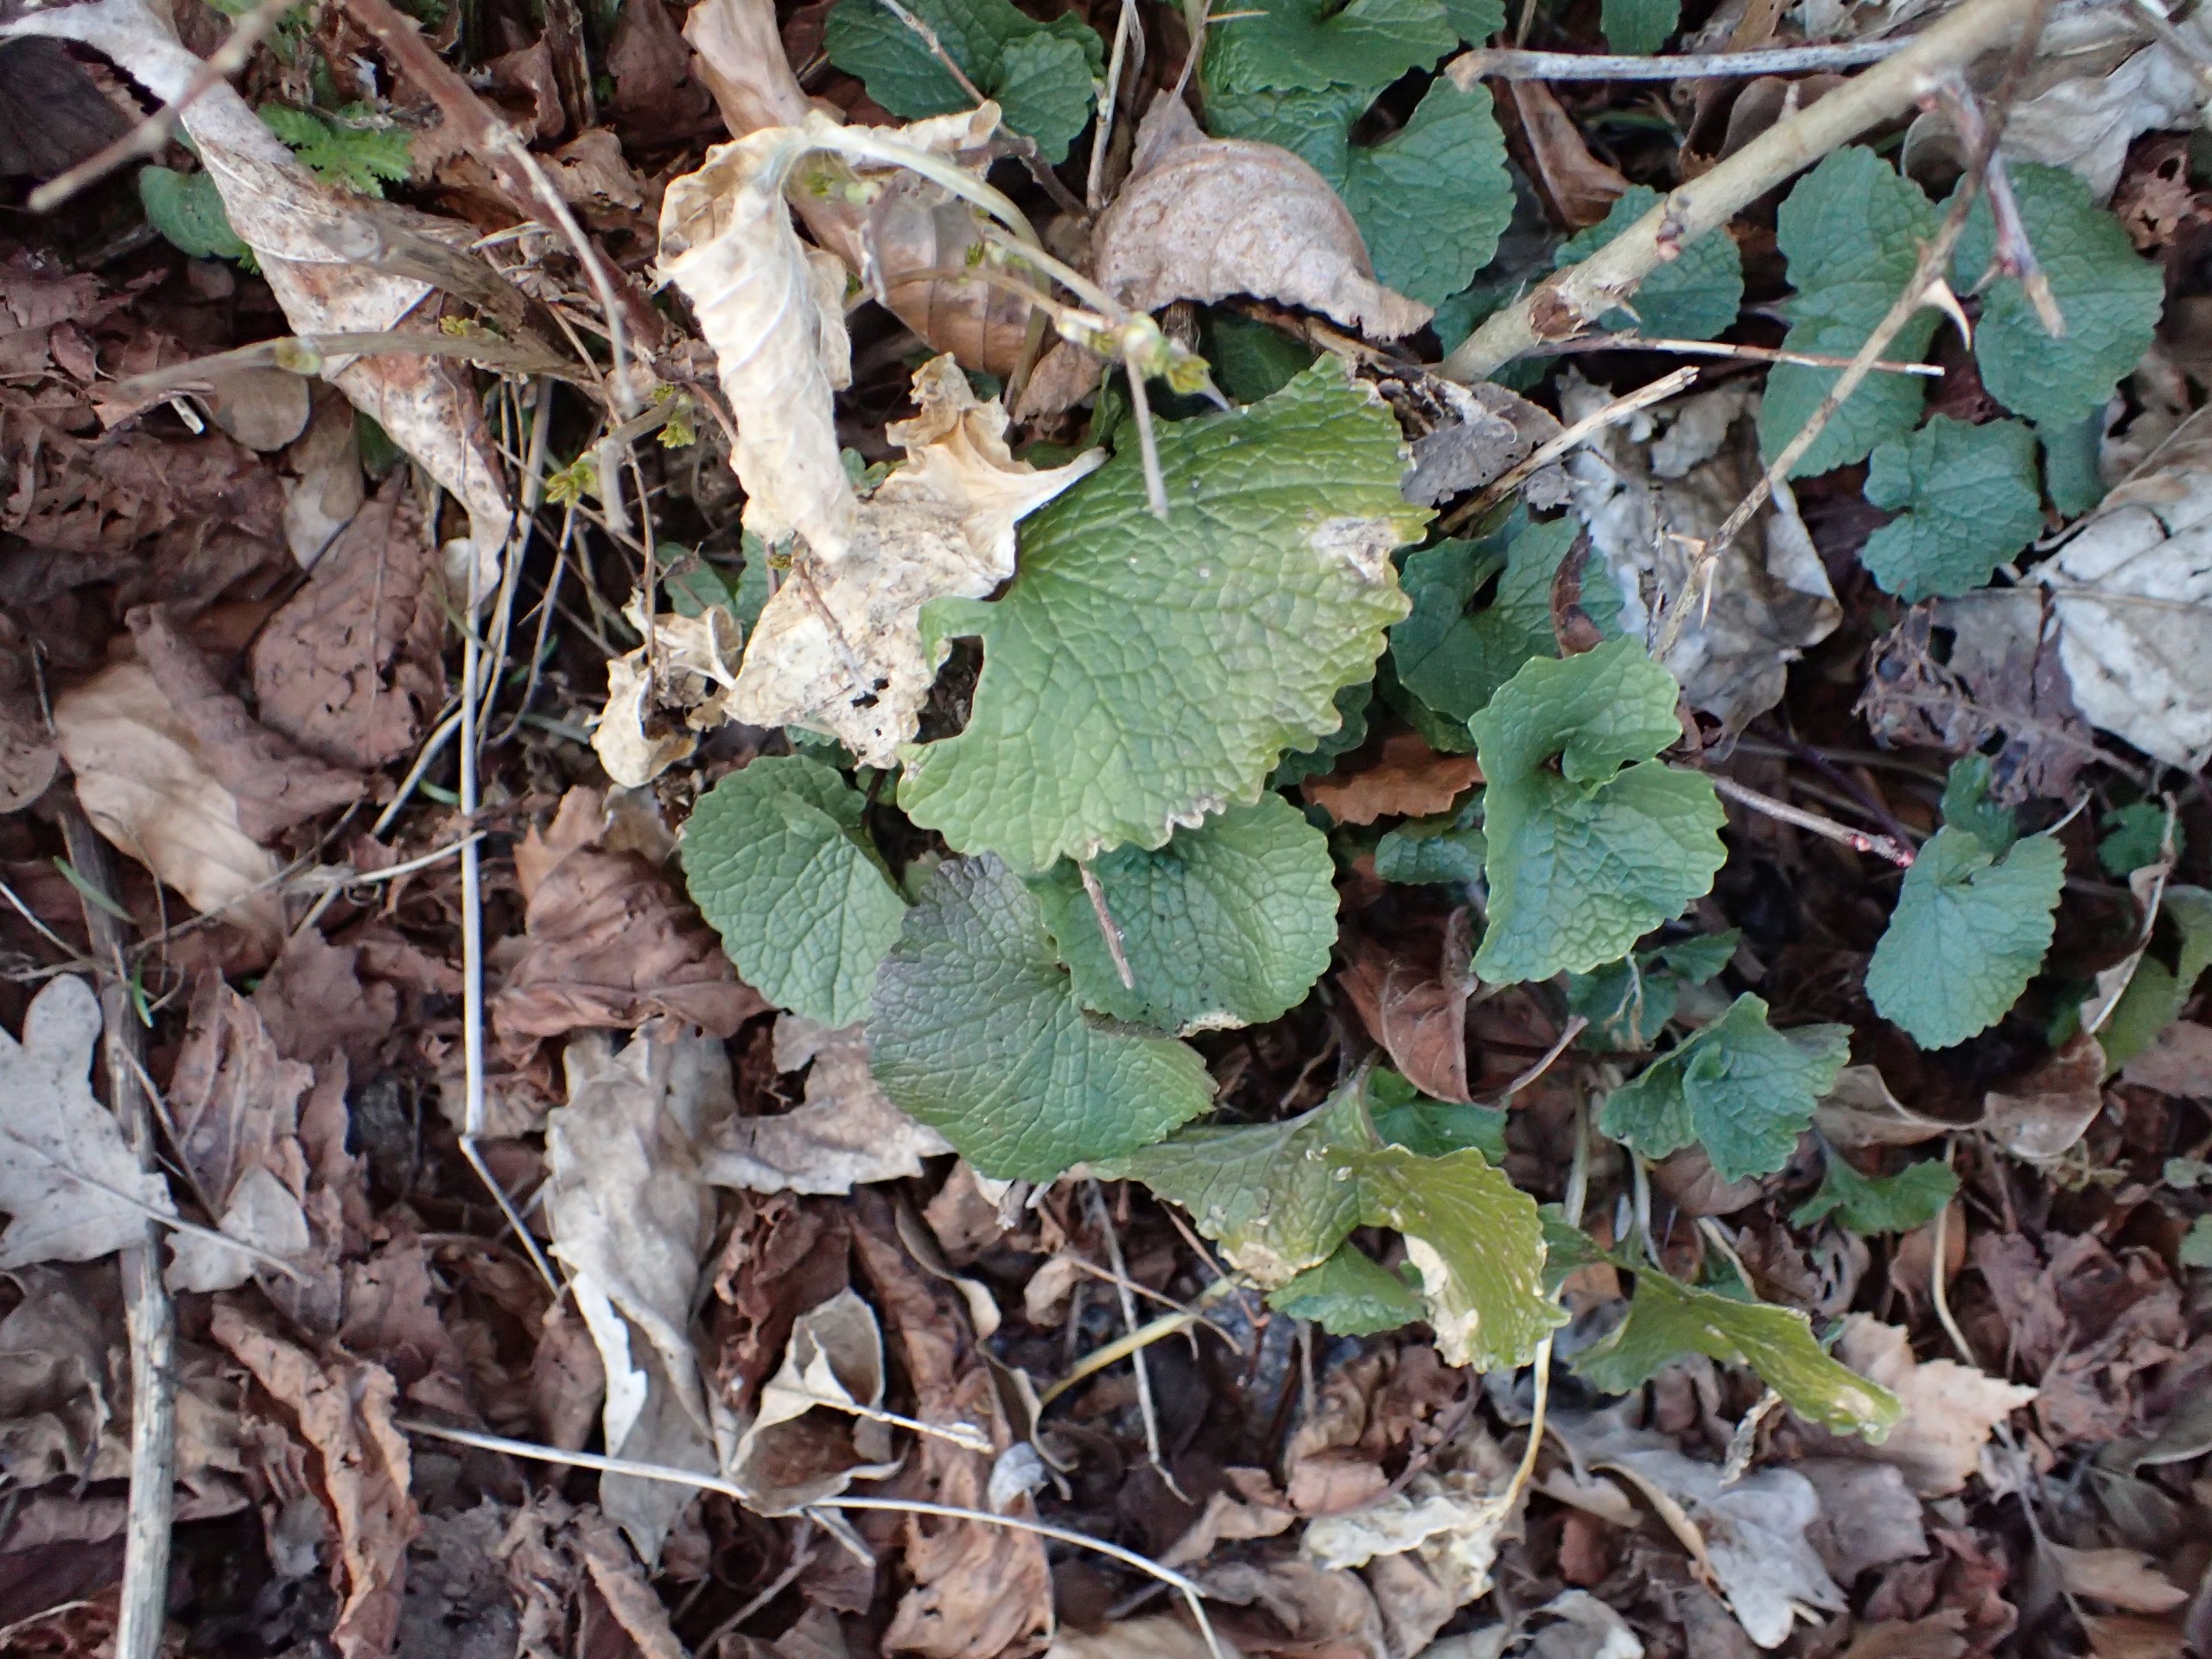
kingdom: Plantae
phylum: Tracheophyta
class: Magnoliopsida
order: Brassicales
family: Brassicaceae
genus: Alliaria
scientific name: Alliaria petiolata
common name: Løgkarse
